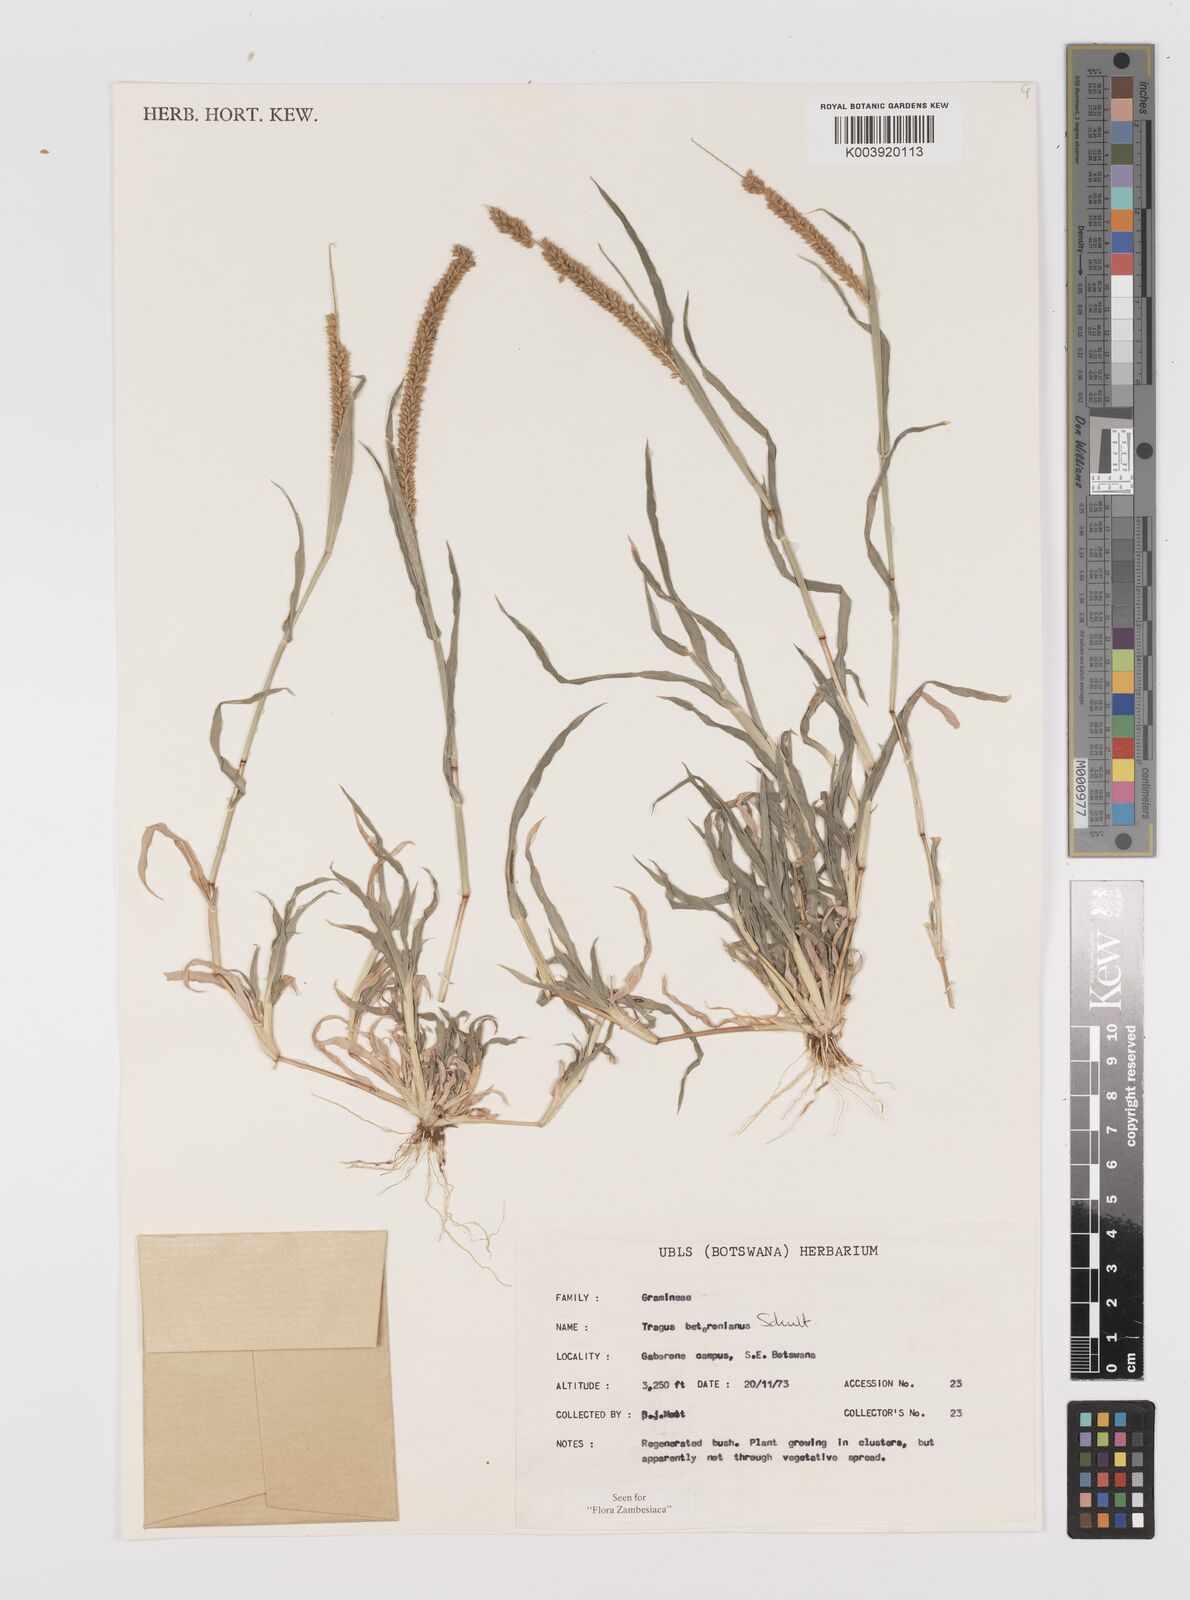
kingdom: Plantae
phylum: Tracheophyta
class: Liliopsida
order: Poales
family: Poaceae
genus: Tragus
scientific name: Tragus berteronianus
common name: African bur-grass
